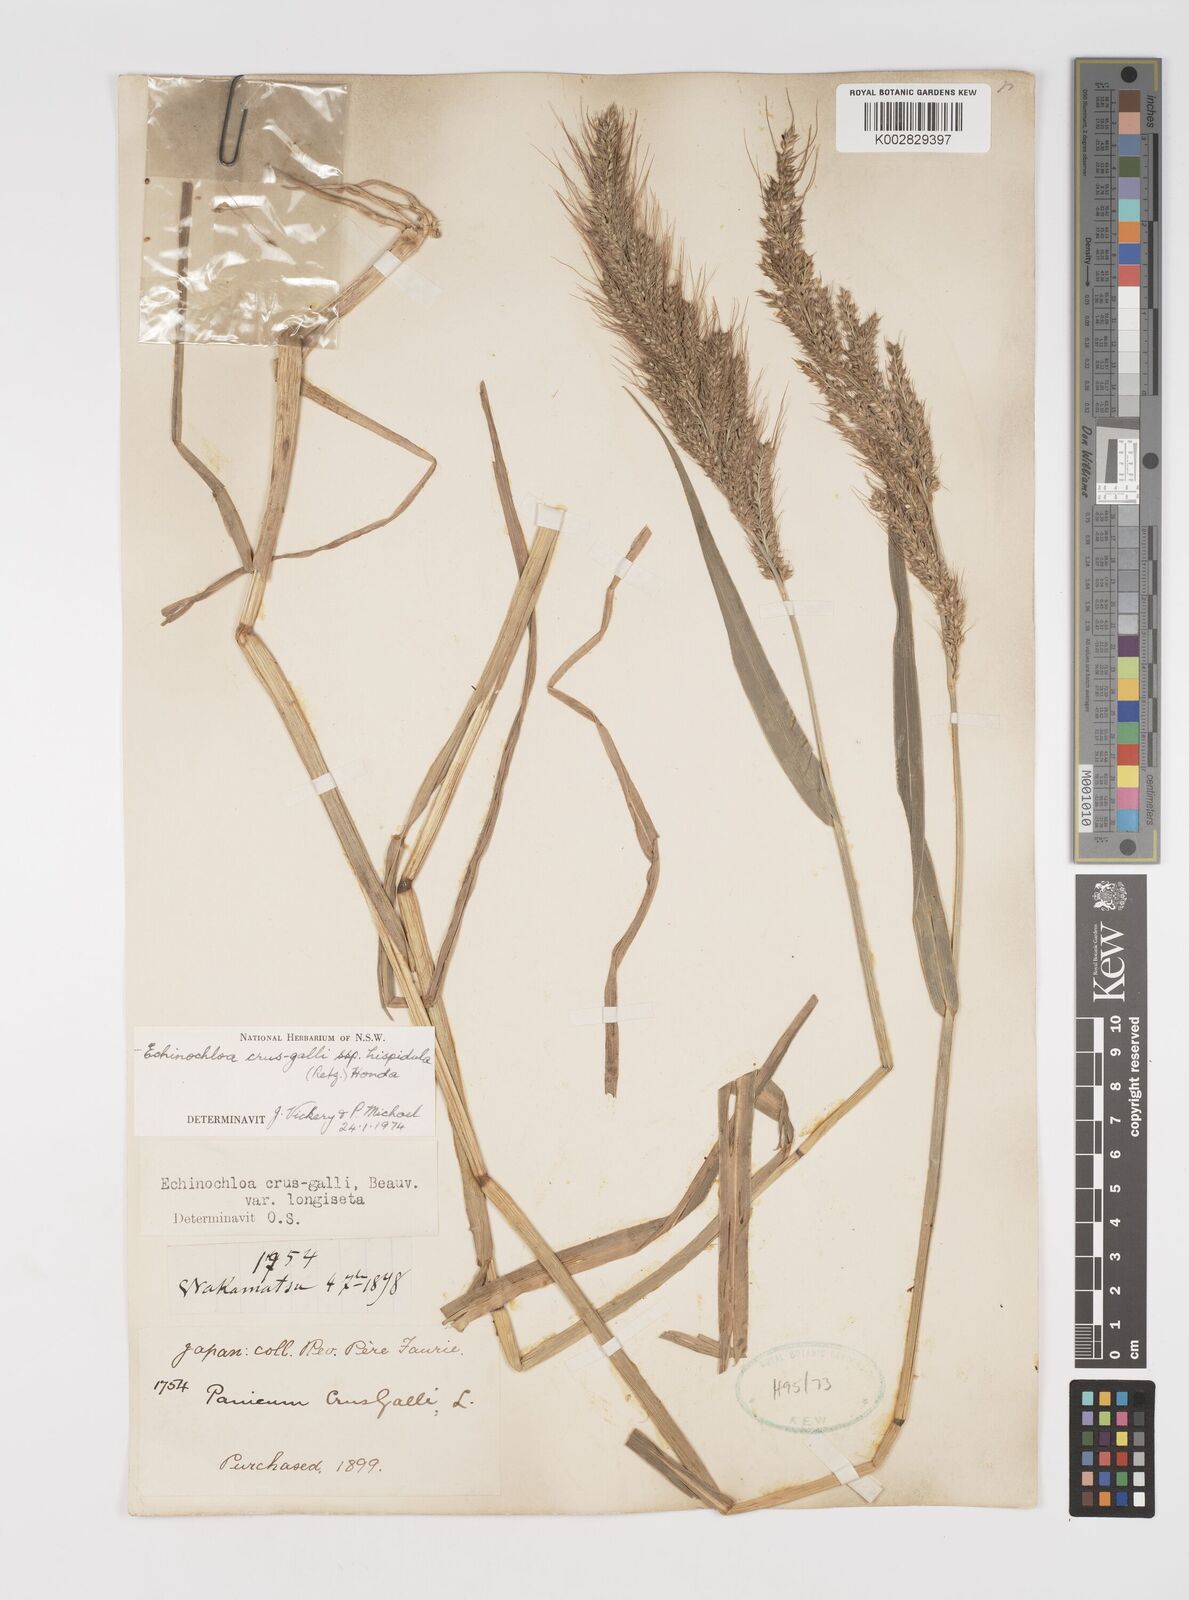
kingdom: Plantae
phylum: Tracheophyta
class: Liliopsida
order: Poales
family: Poaceae
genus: Echinochloa
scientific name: Echinochloa crus-galli
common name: Cockspur
